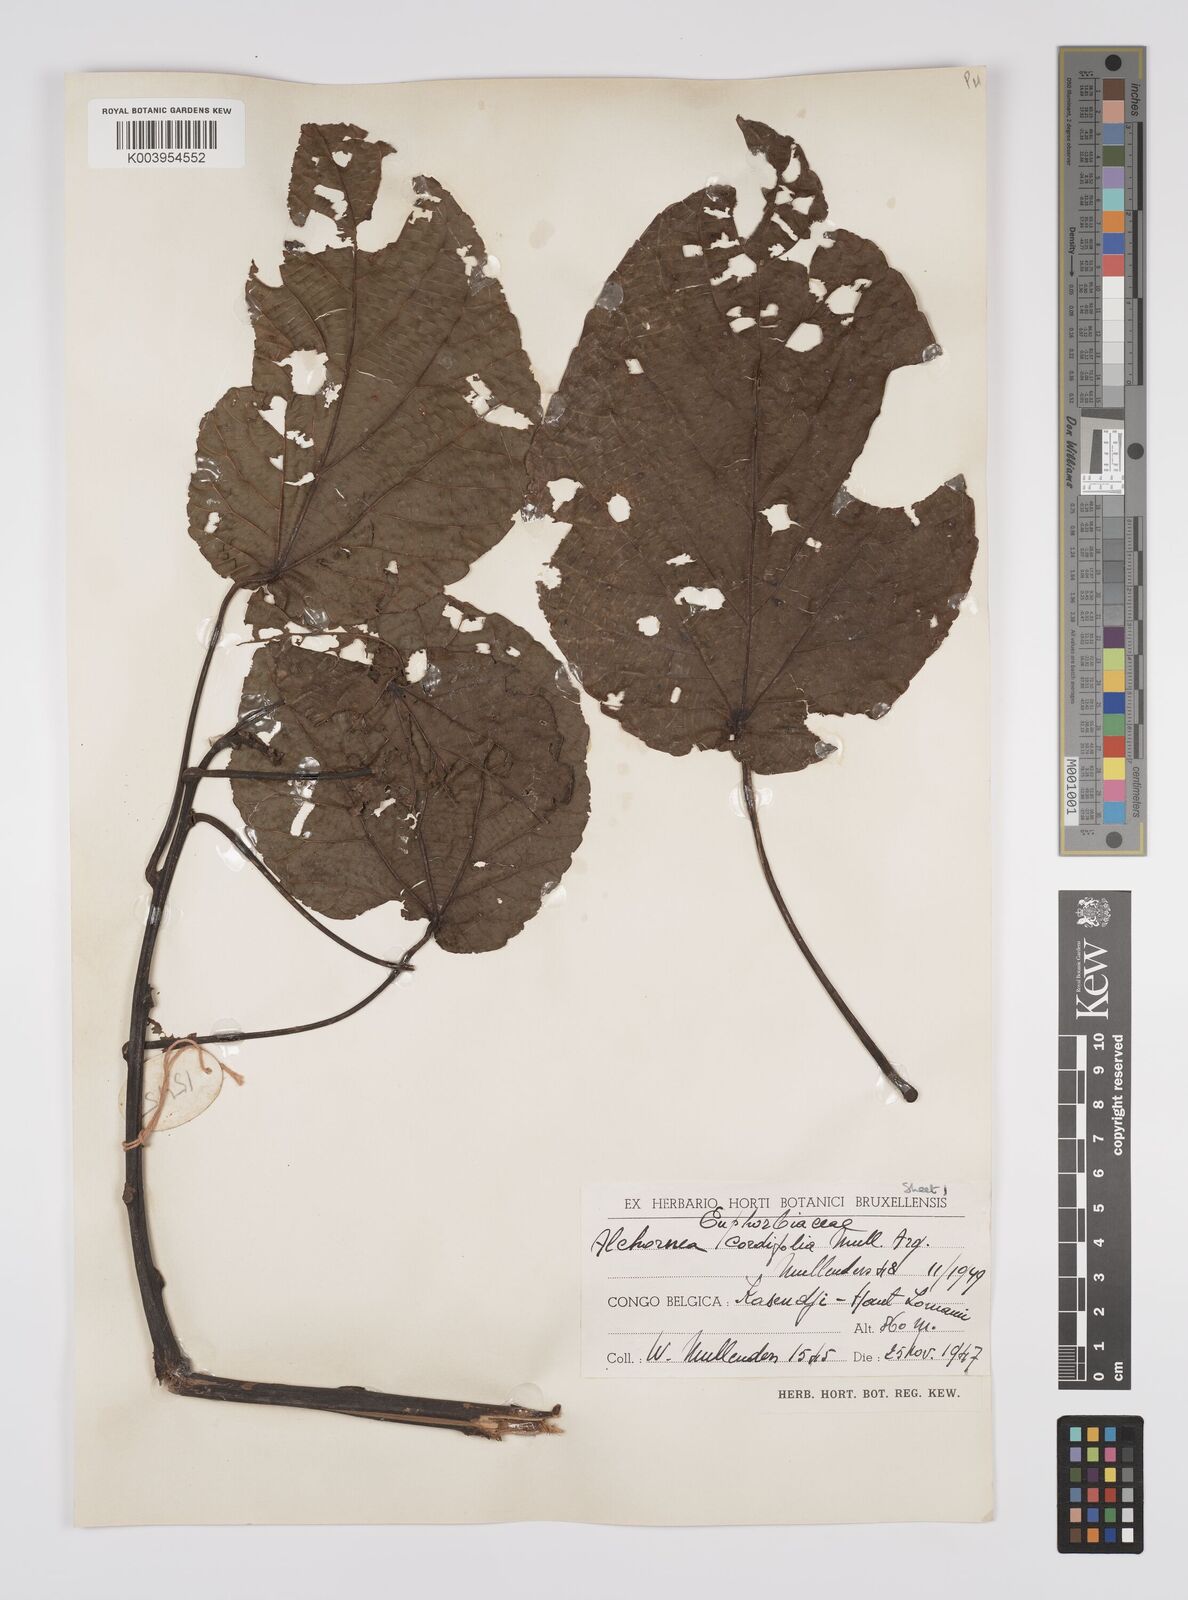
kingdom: Plantae
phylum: Tracheophyta
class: Magnoliopsida
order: Malpighiales
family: Euphorbiaceae
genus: Alchornea
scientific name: Alchornea cordifolia
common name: Christmasbush
